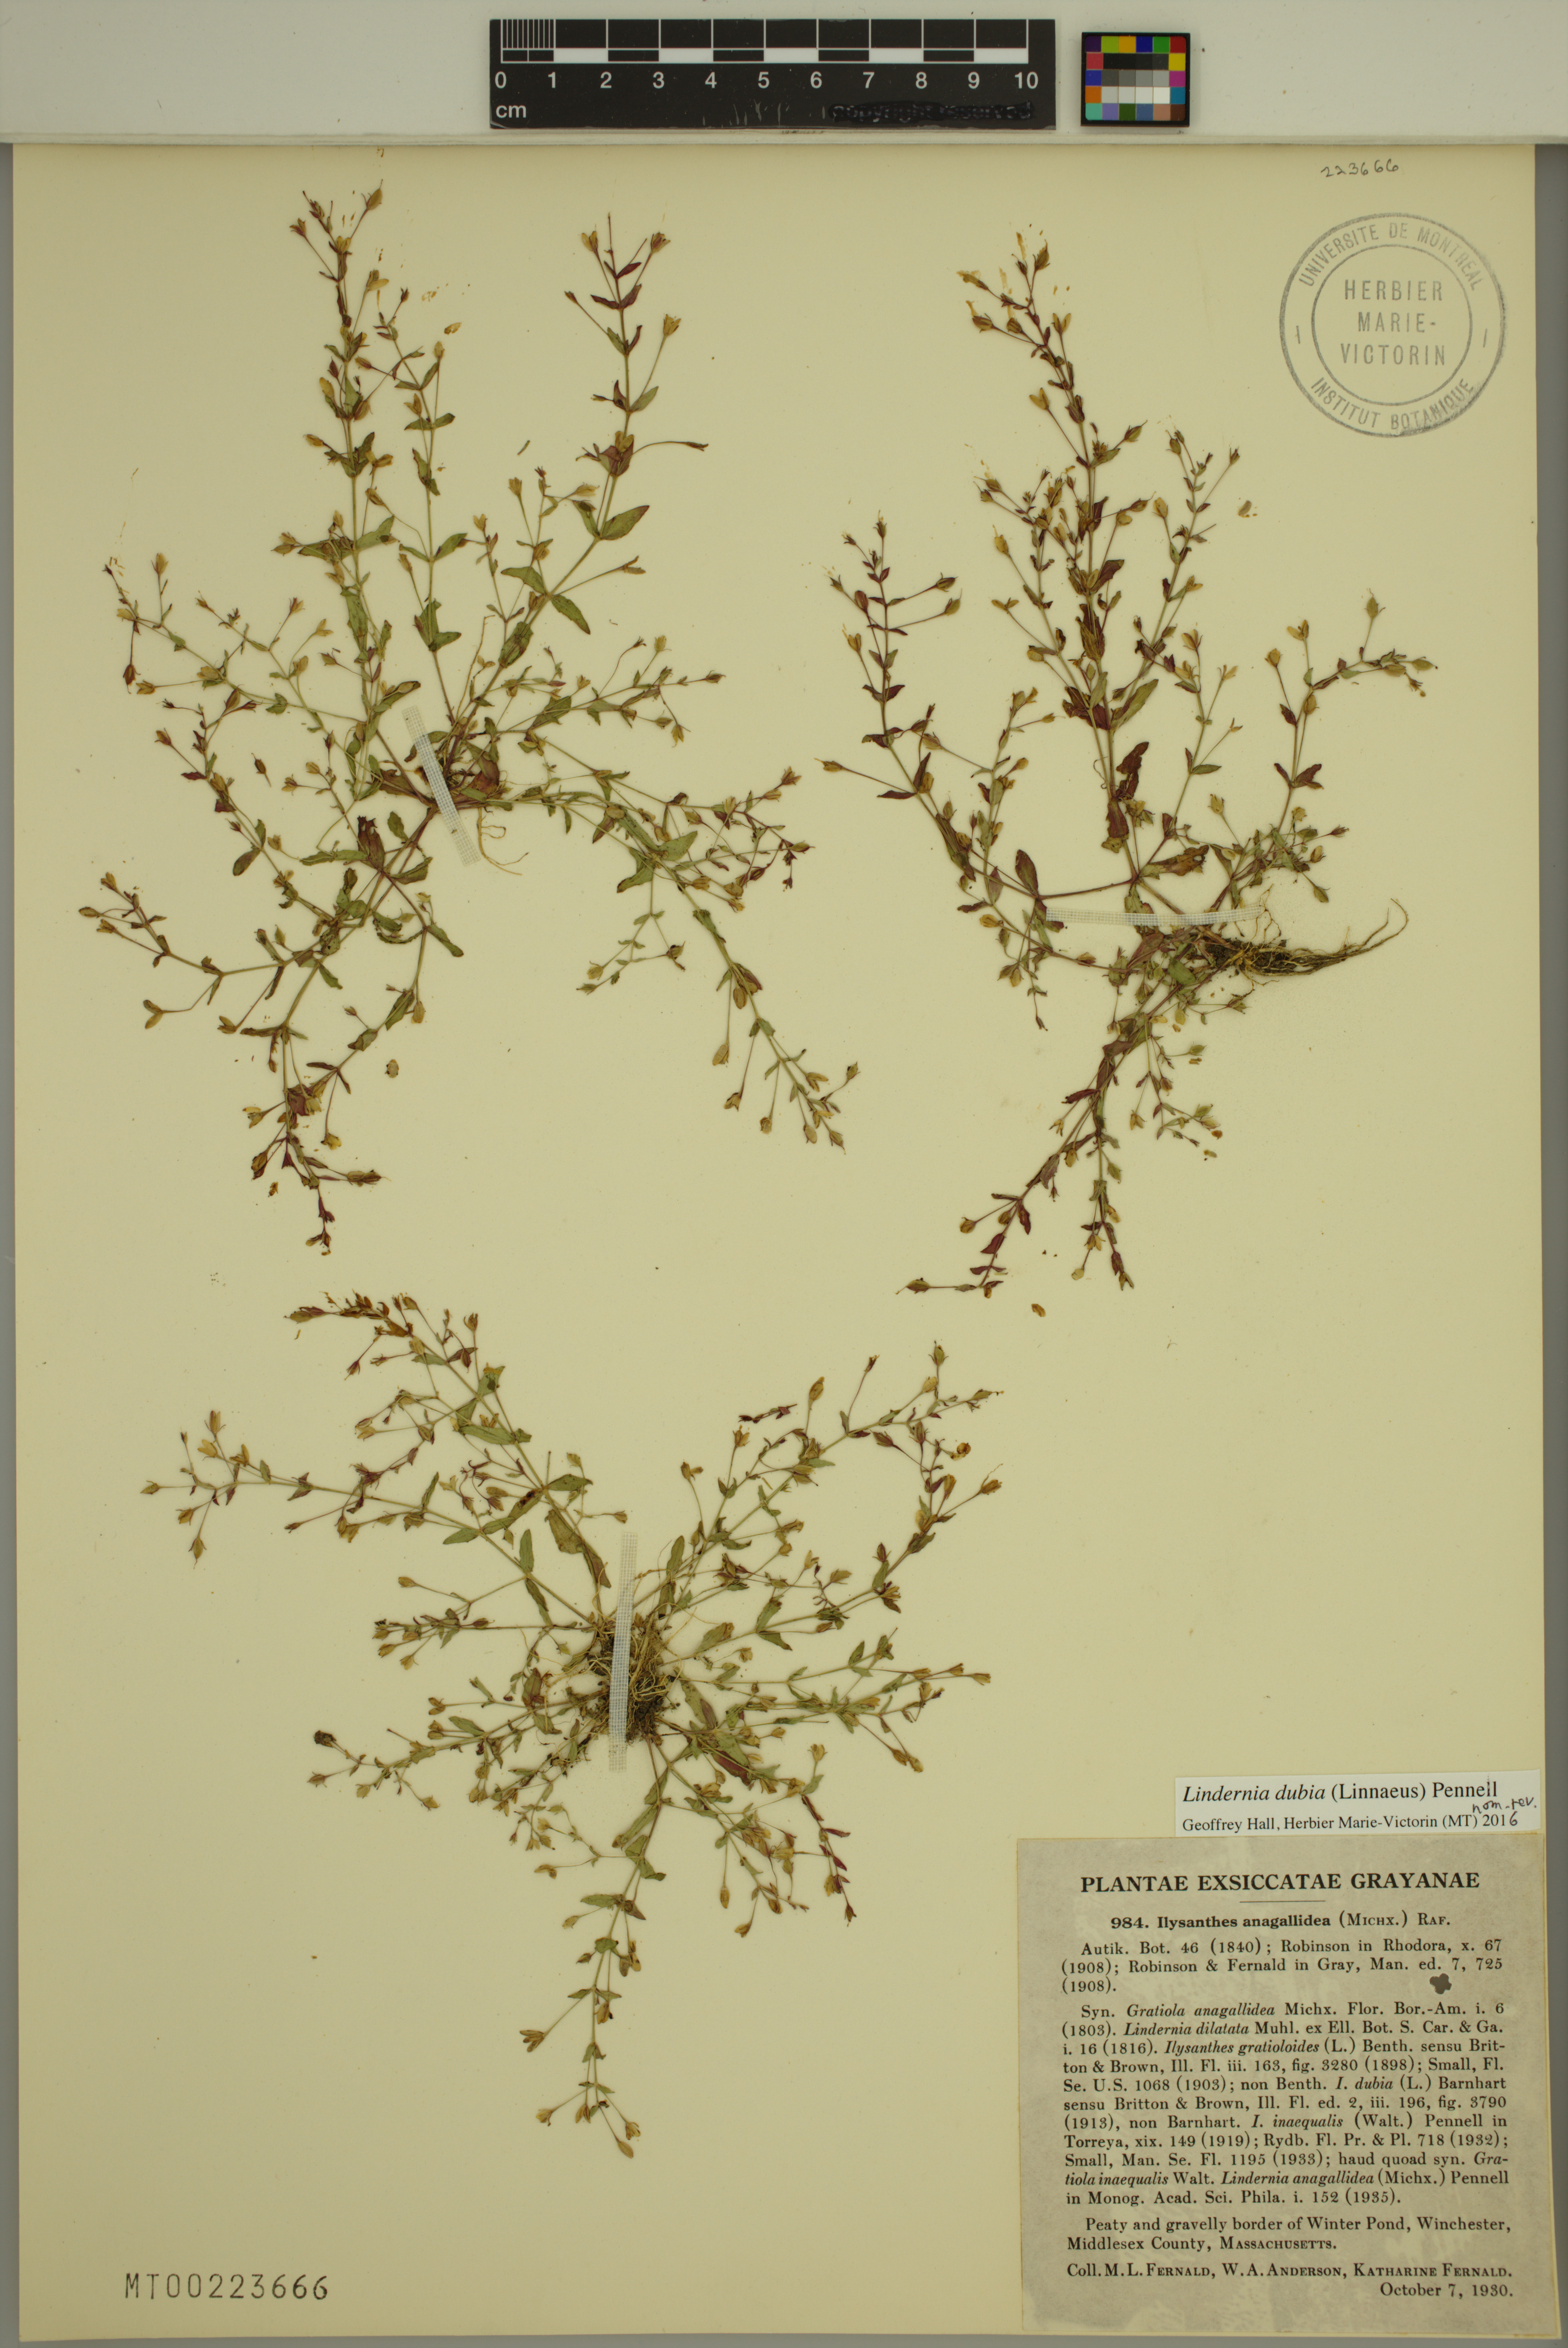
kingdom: Plantae
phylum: Tracheophyta
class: Magnoliopsida
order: Lamiales
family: Linderniaceae
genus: Lindernia
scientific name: Lindernia dubia
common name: Annual false pimpernel
